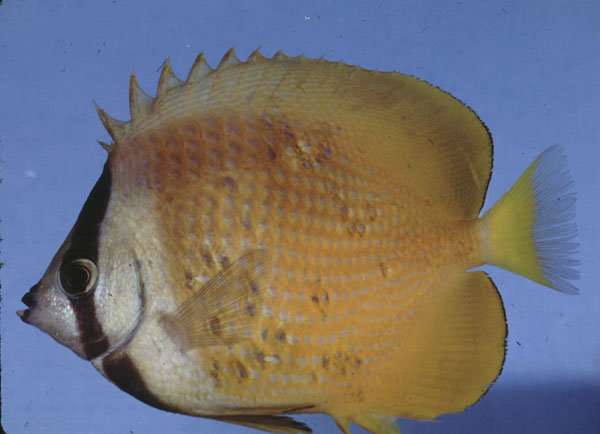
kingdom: Animalia
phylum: Chordata
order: Perciformes
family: Chaetodontidae
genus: Chaetodon
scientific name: Chaetodon kleinii
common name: Klein's butterflyfish
